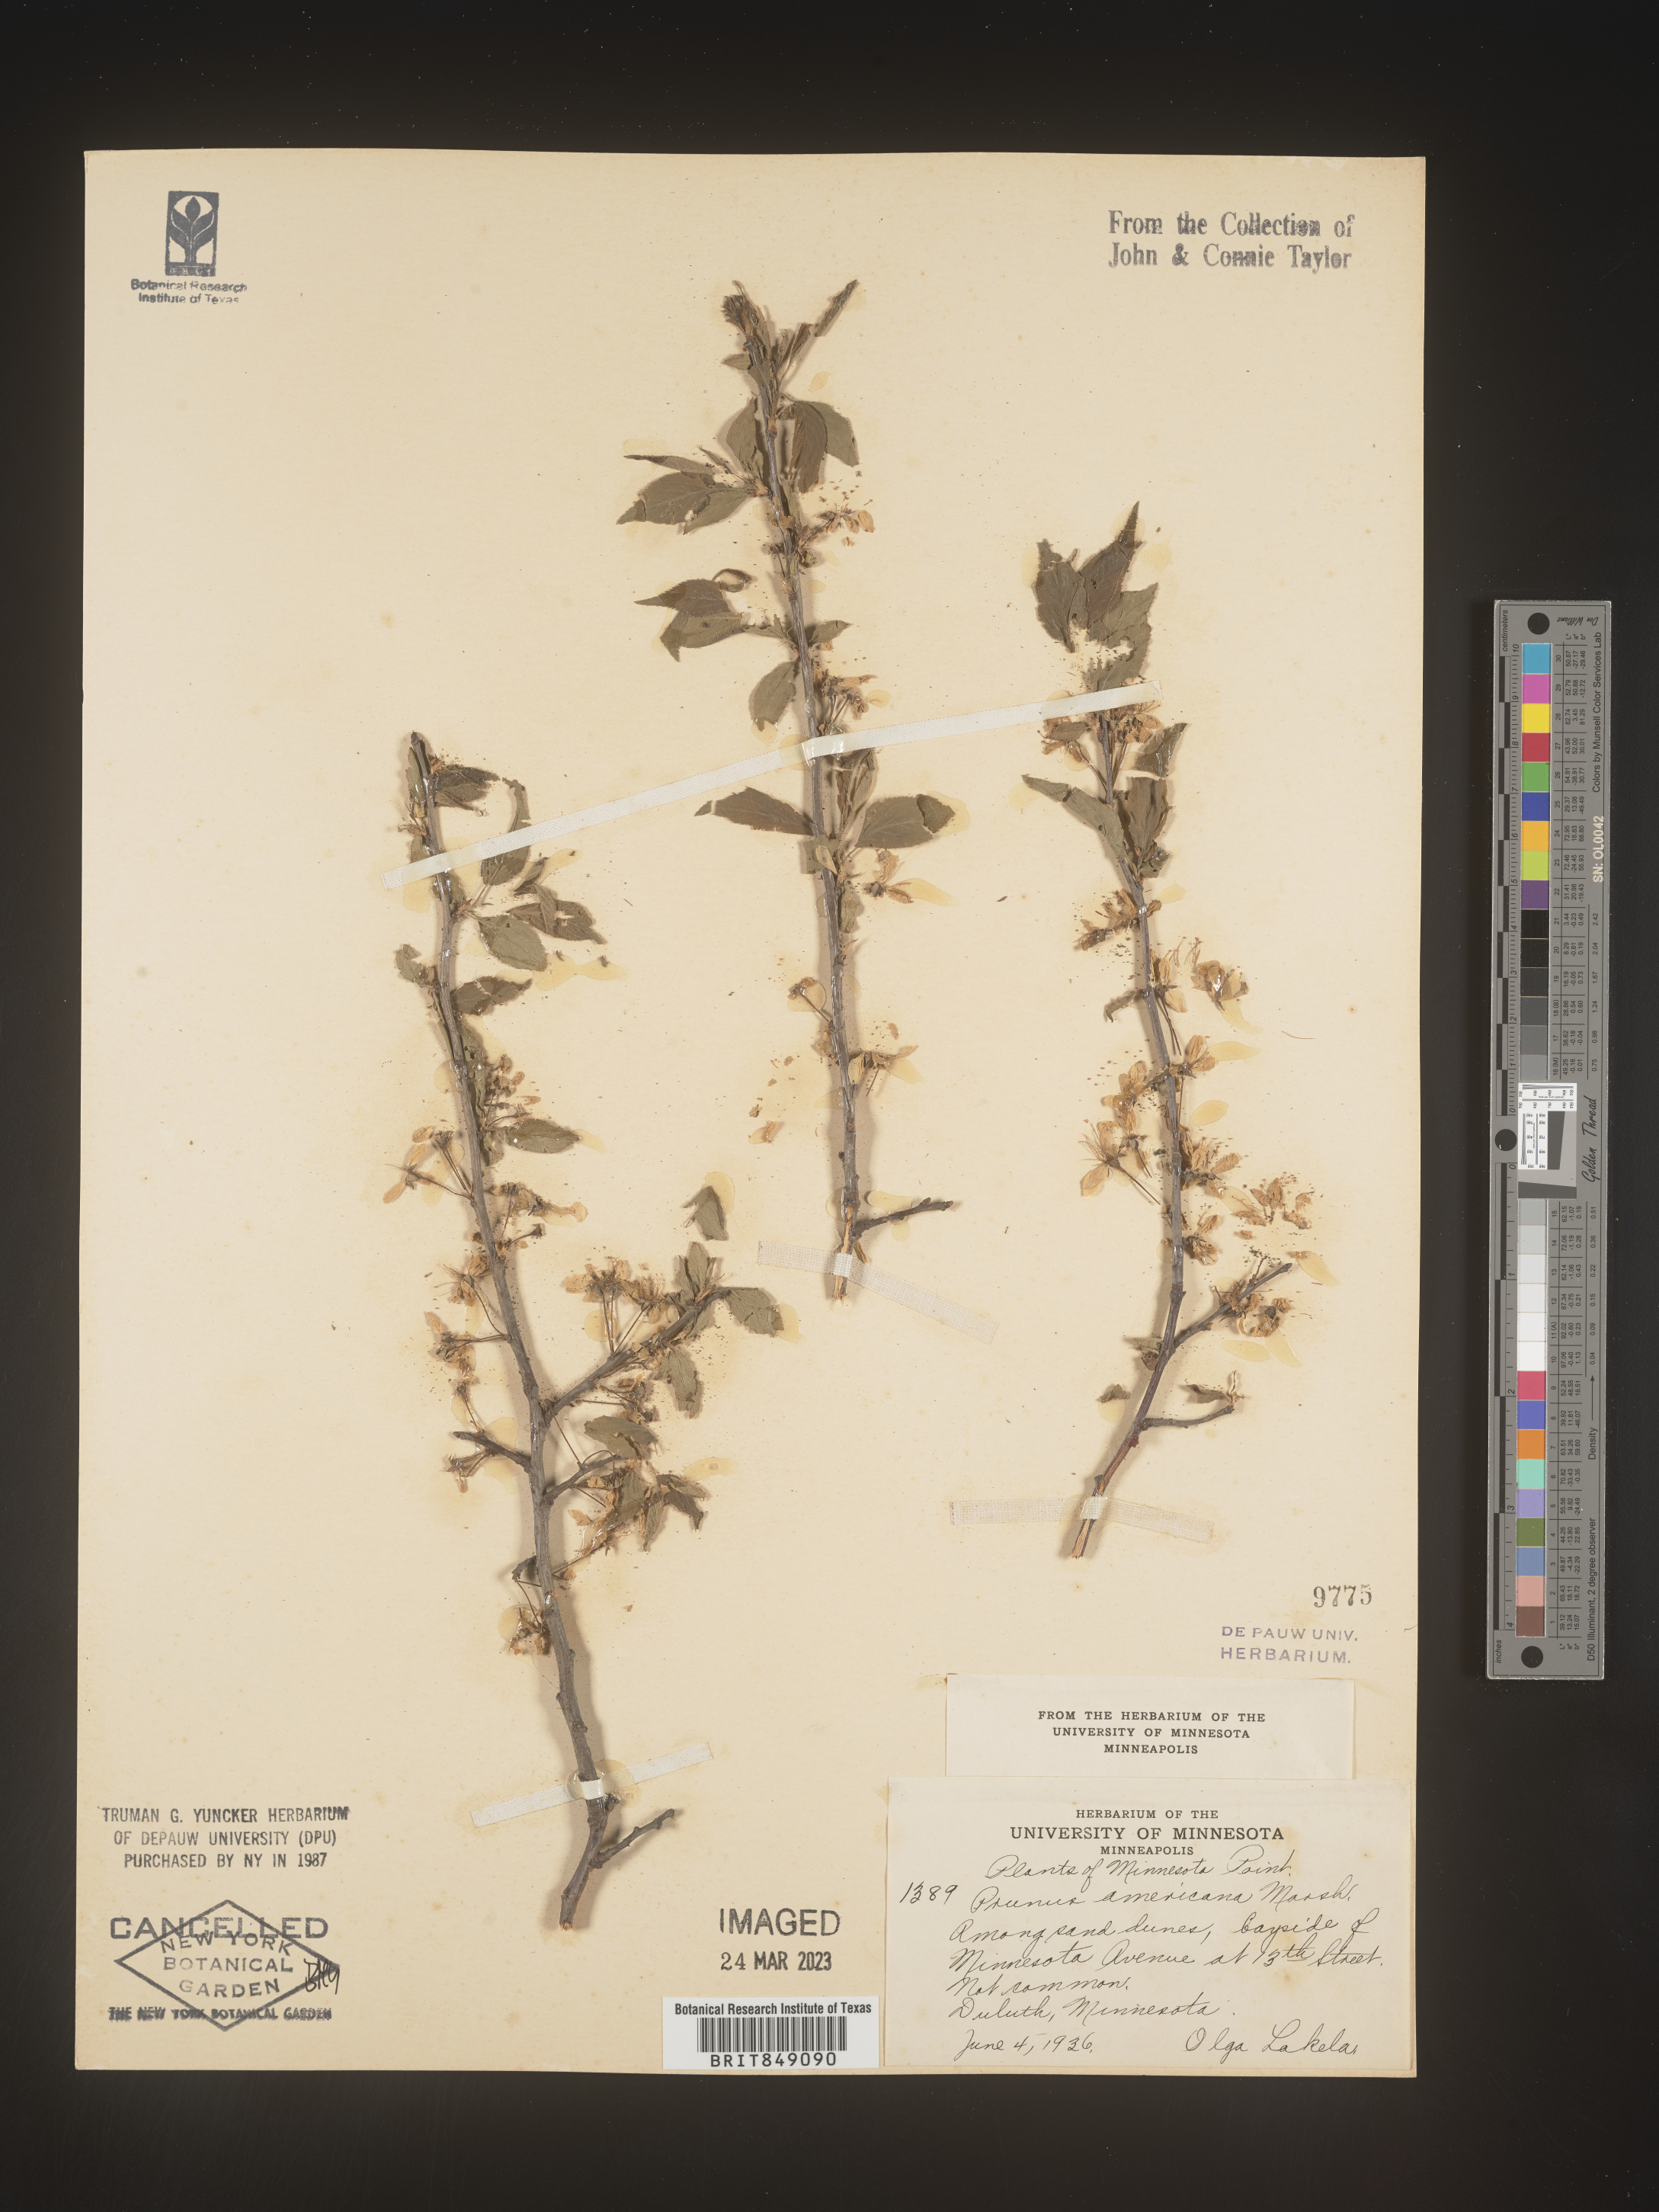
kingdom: Plantae
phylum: Tracheophyta
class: Magnoliopsida
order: Rosales
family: Rosaceae
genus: Prunus
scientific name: Prunus americana
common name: American plum
